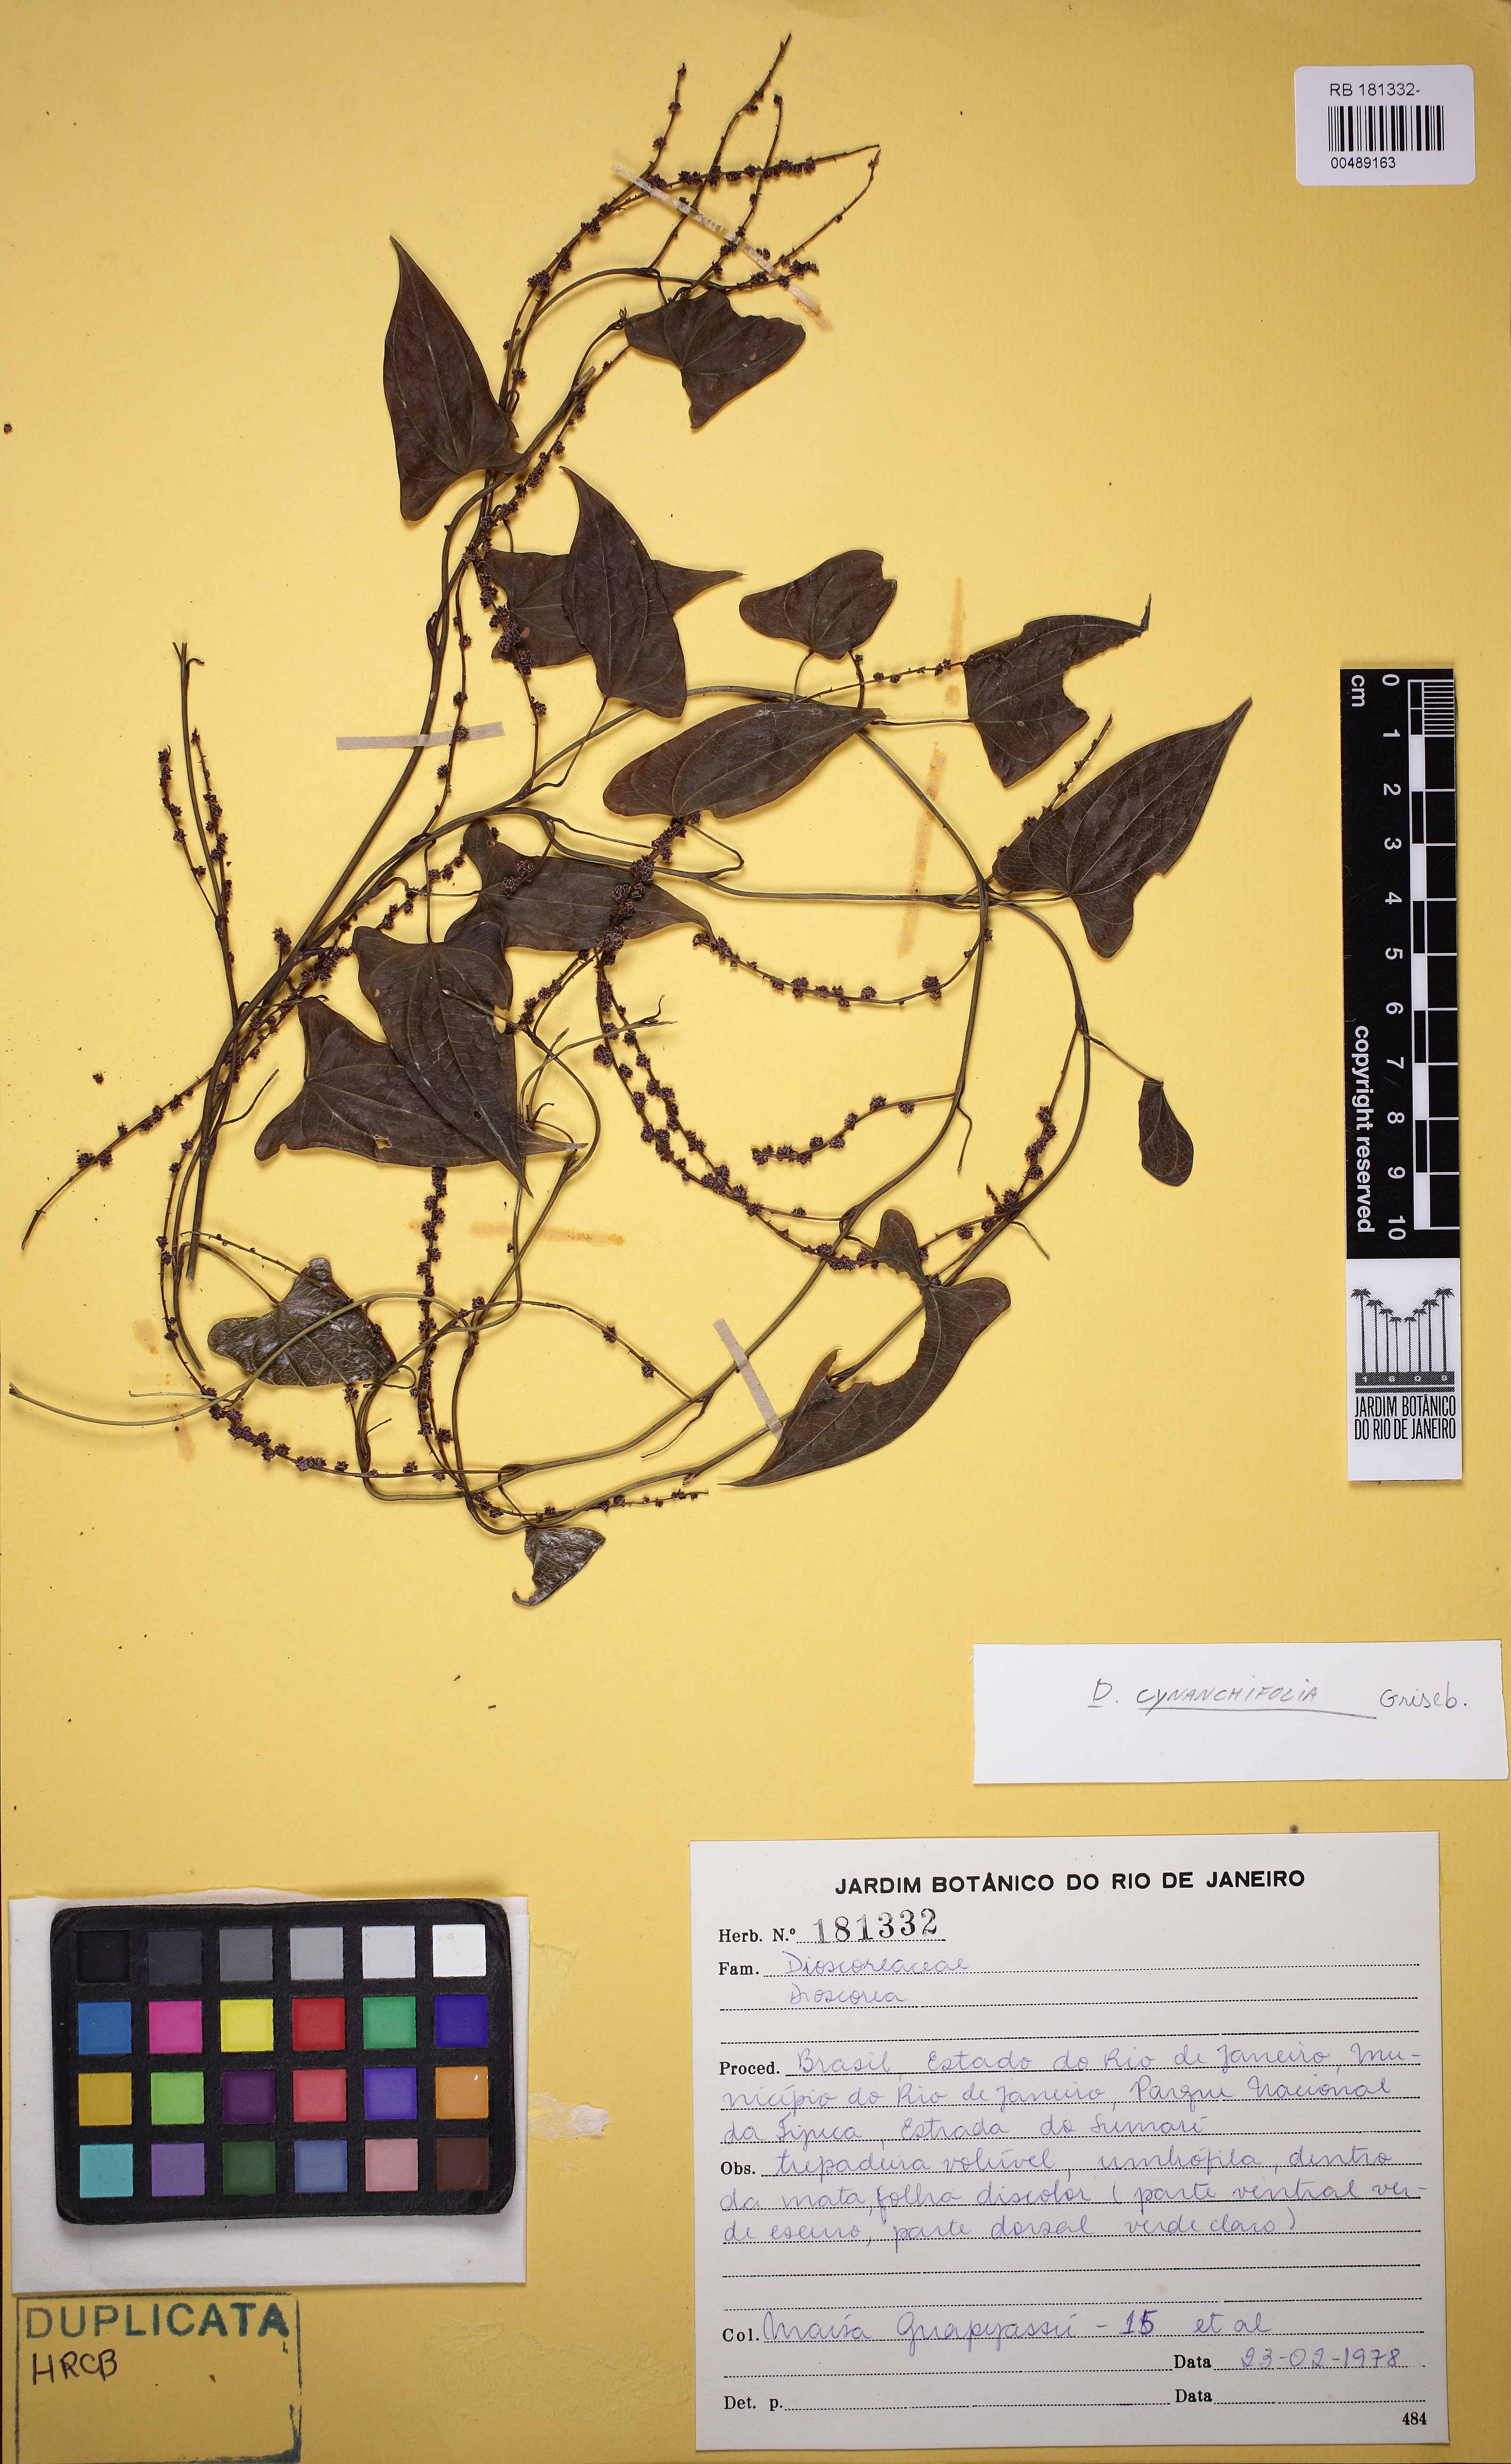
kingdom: Plantae
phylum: Tracheophyta
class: Liliopsida
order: Dioscoreales
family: Dioscoreaceae
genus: Dioscorea
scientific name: Dioscorea marginata
